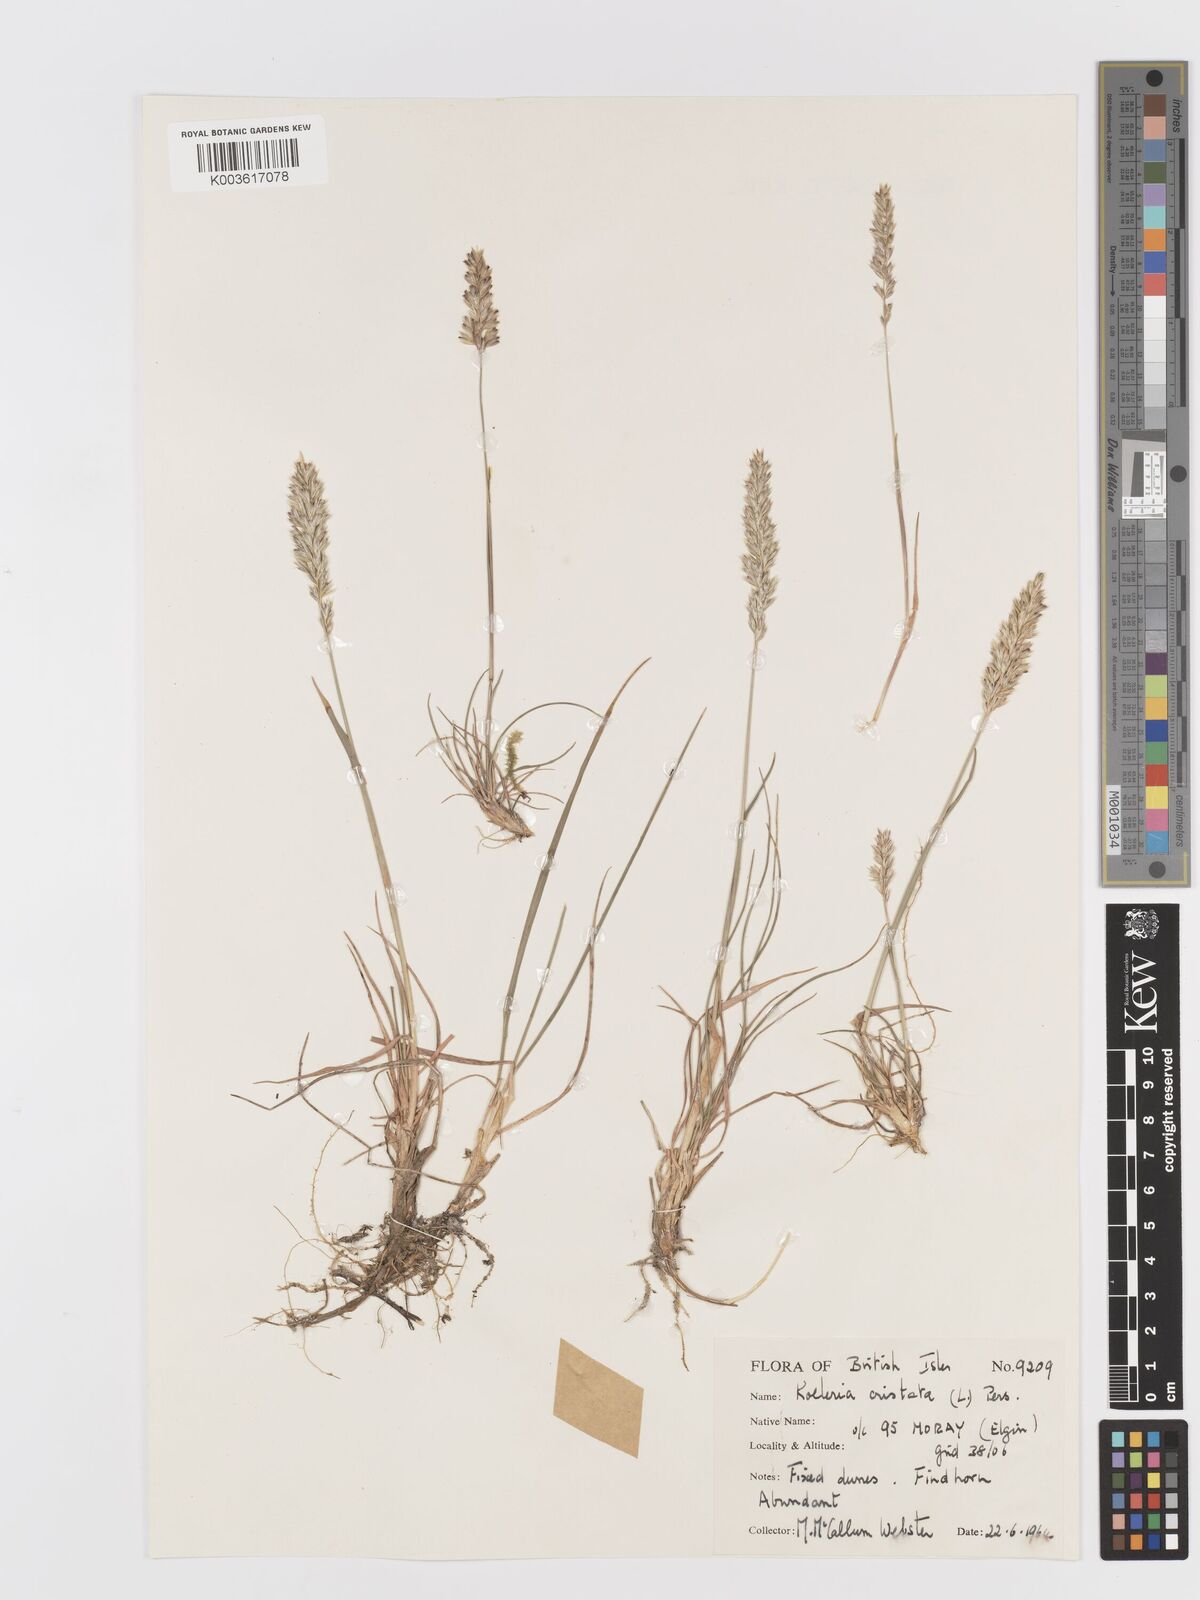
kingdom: Plantae
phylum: Tracheophyta
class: Liliopsida
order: Poales
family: Poaceae
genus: Koeleria
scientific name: Koeleria macrantha
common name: Crested hair-grass
